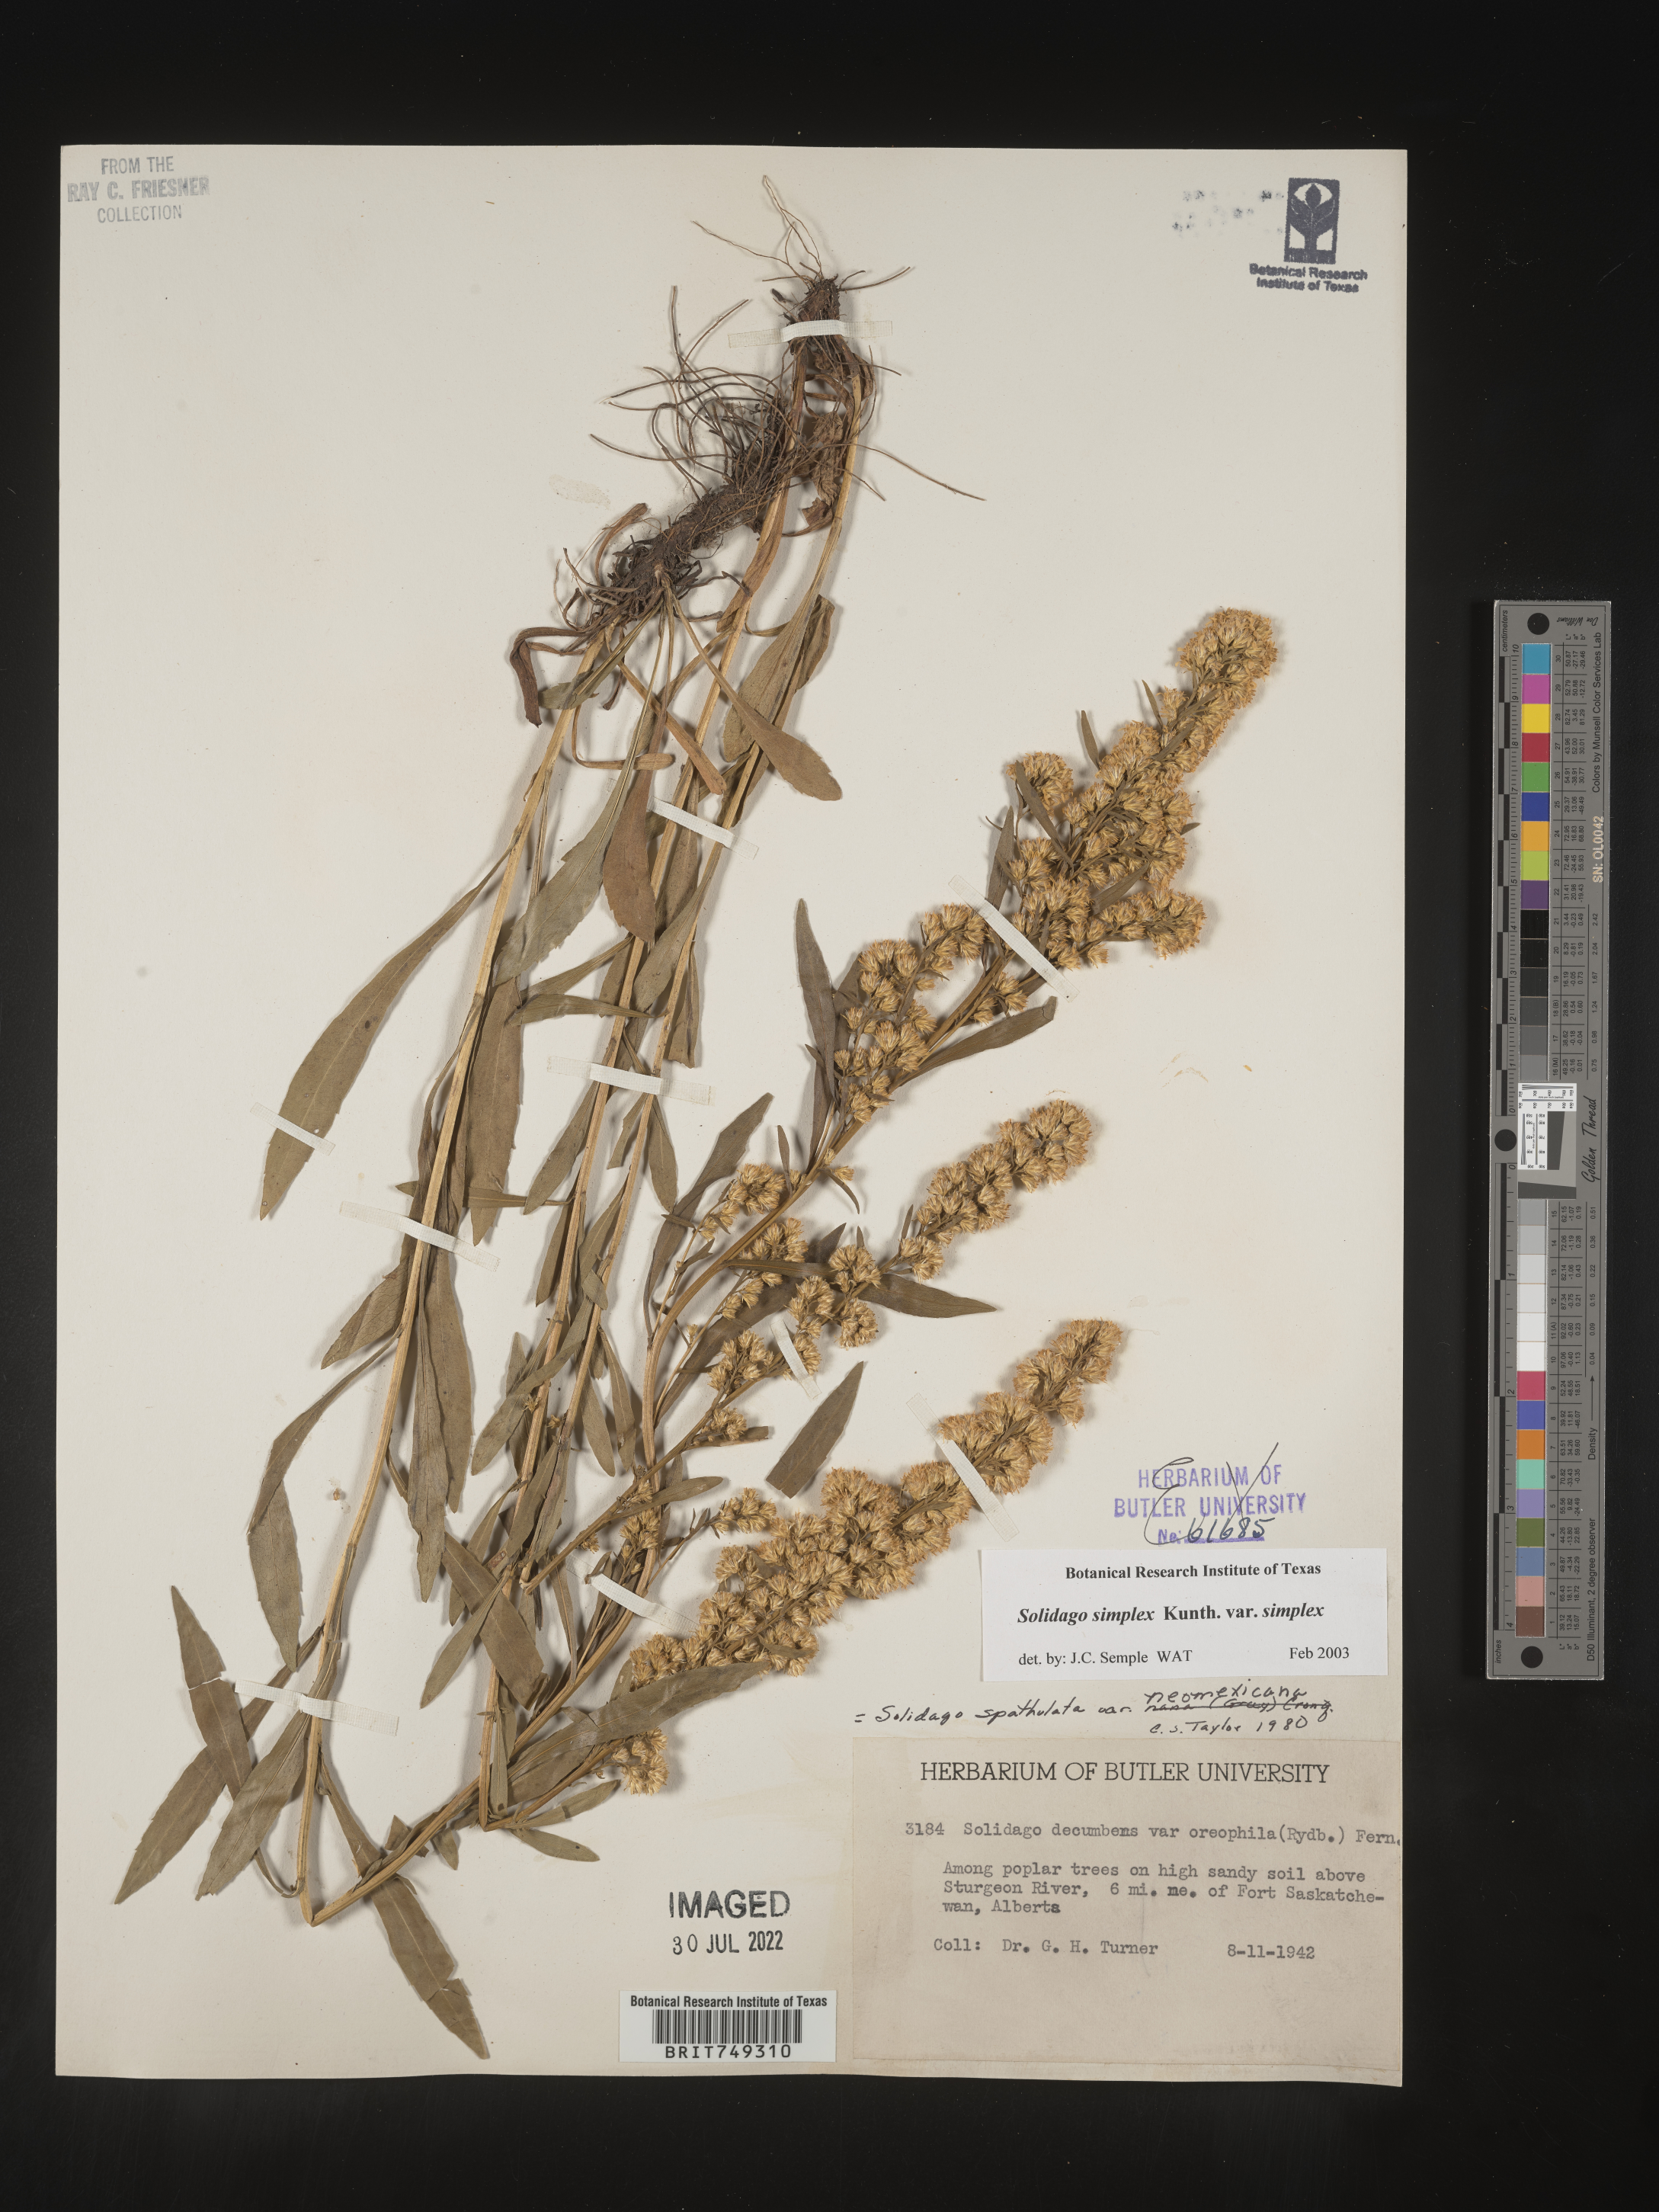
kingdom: Plantae
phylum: Tracheophyta
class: Magnoliopsida
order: Asterales
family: Asteraceae
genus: Solidago
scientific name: Solidago simplex
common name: Sticky goldenrod
